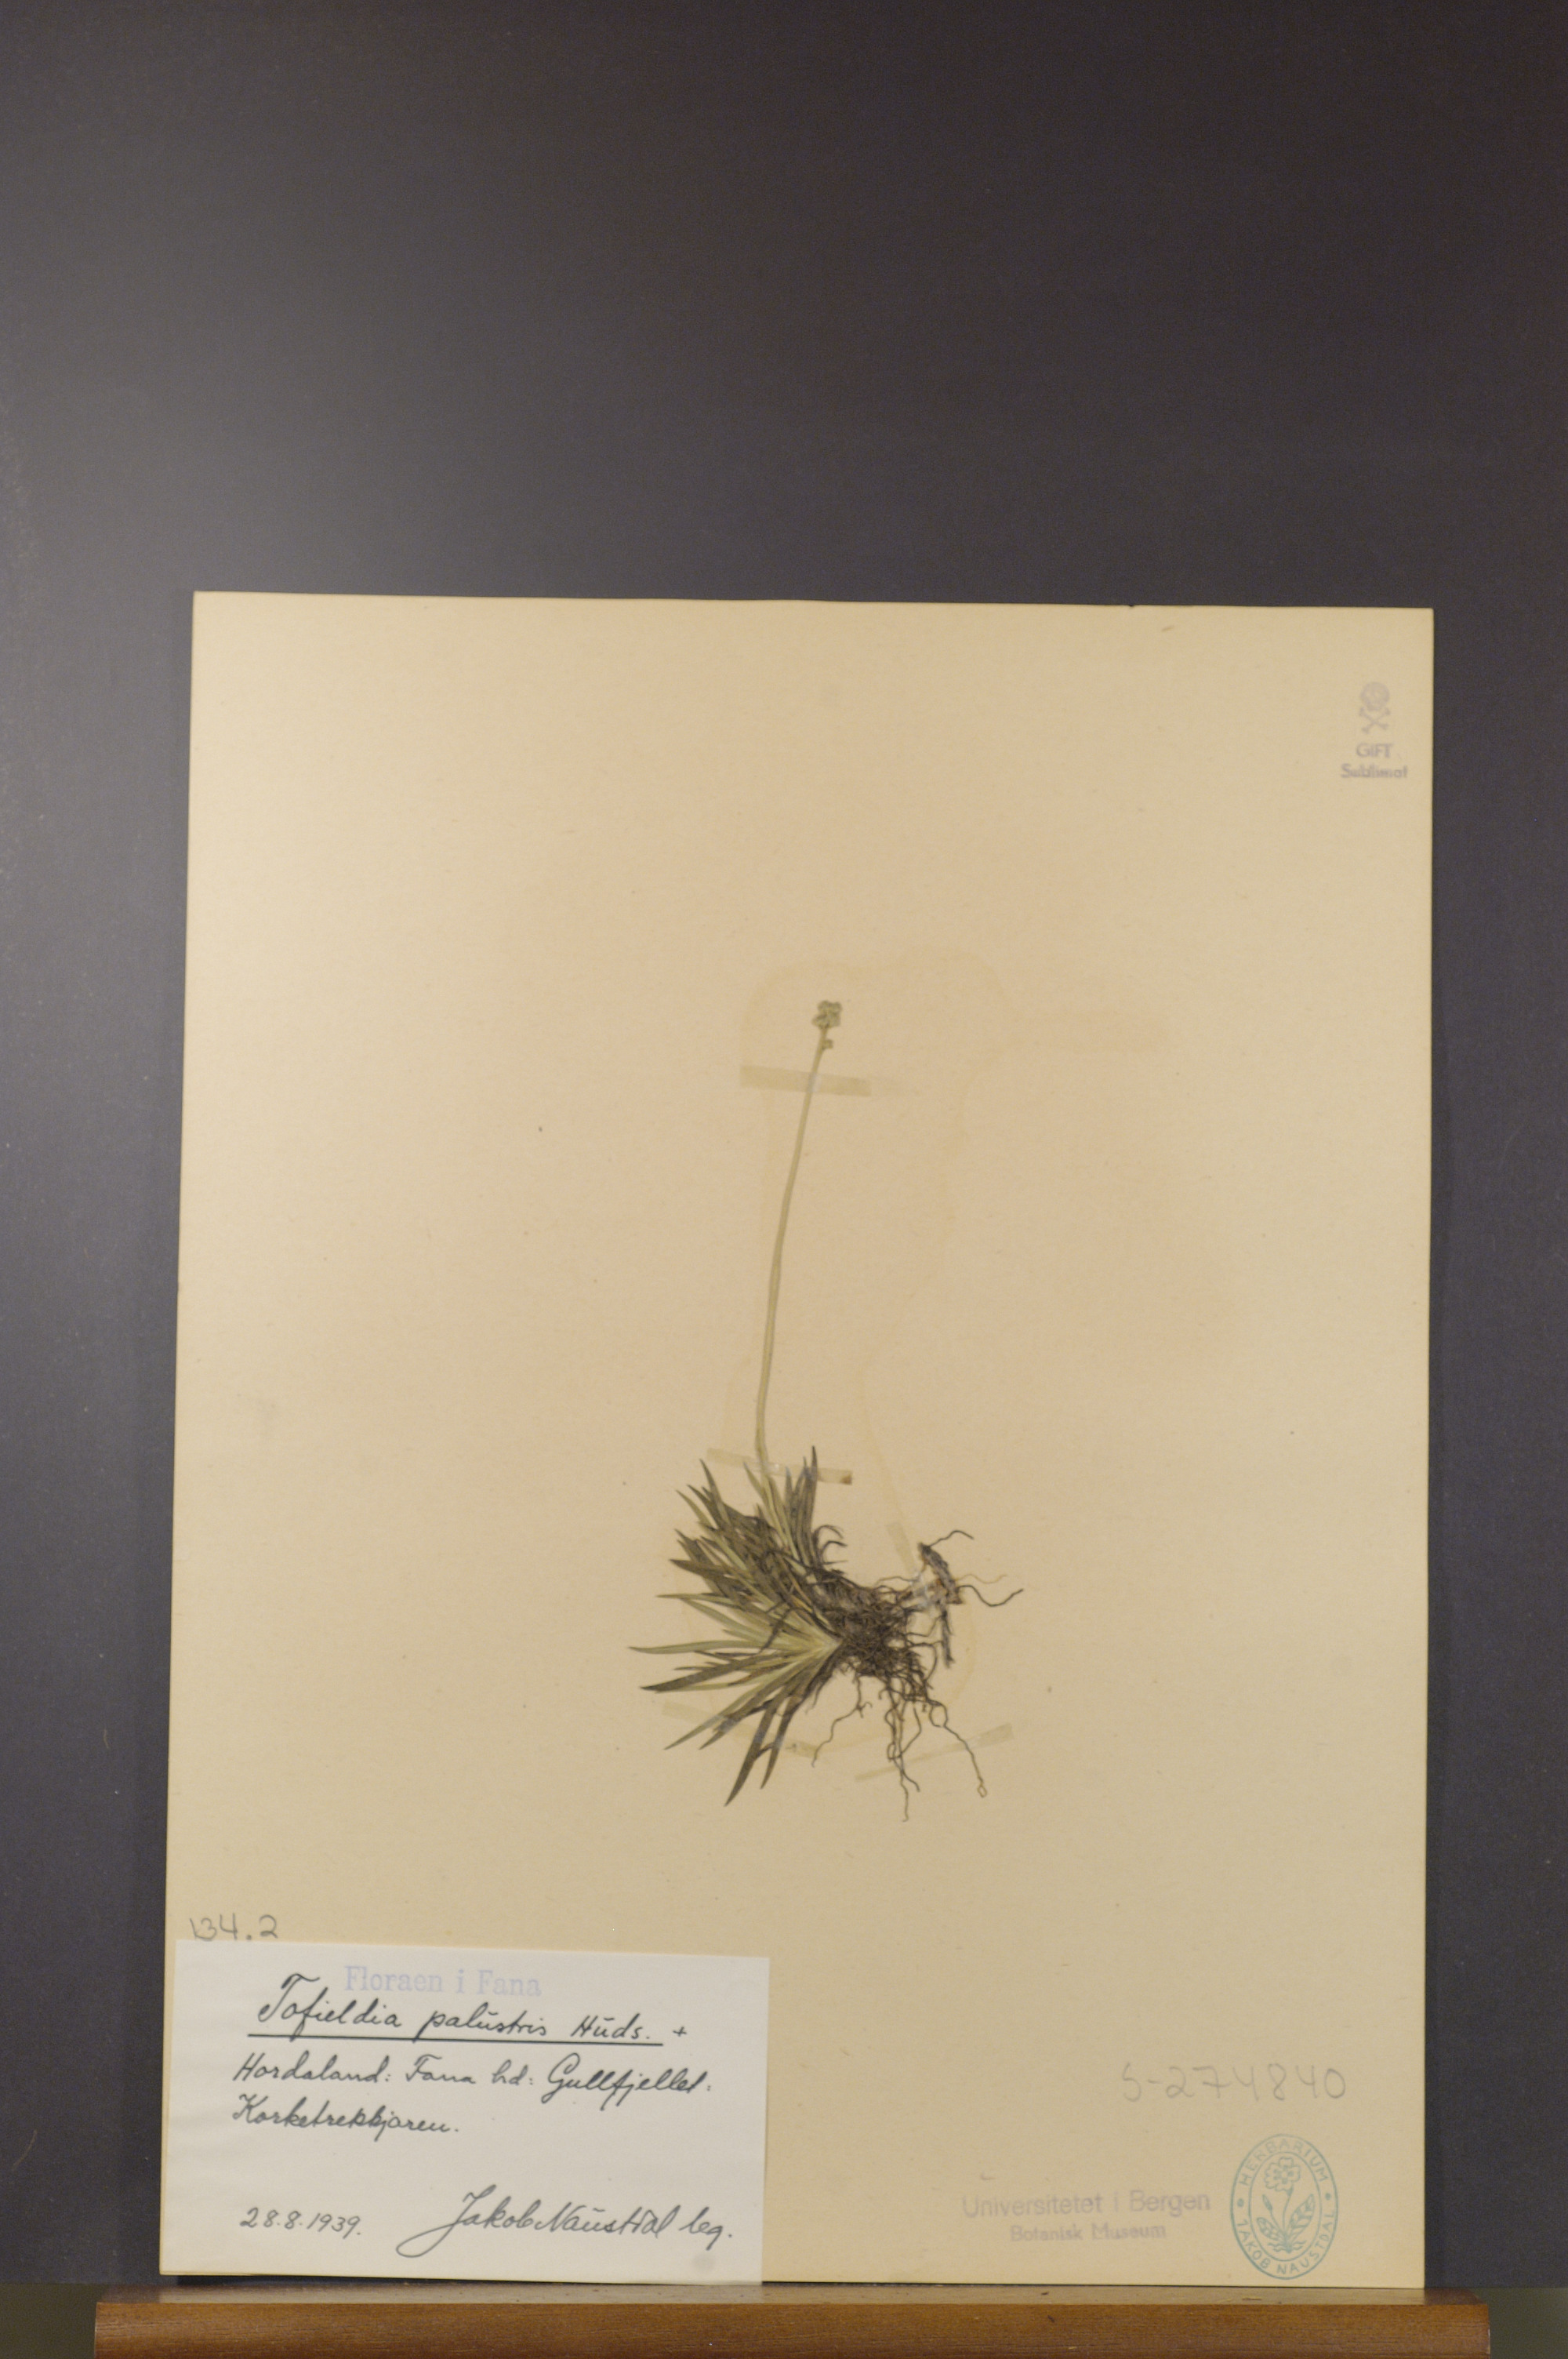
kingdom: Plantae
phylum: Tracheophyta
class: Liliopsida
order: Alismatales
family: Tofieldiaceae
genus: Tofieldia
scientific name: Tofieldia pusilla
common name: Scottish false asphodel
